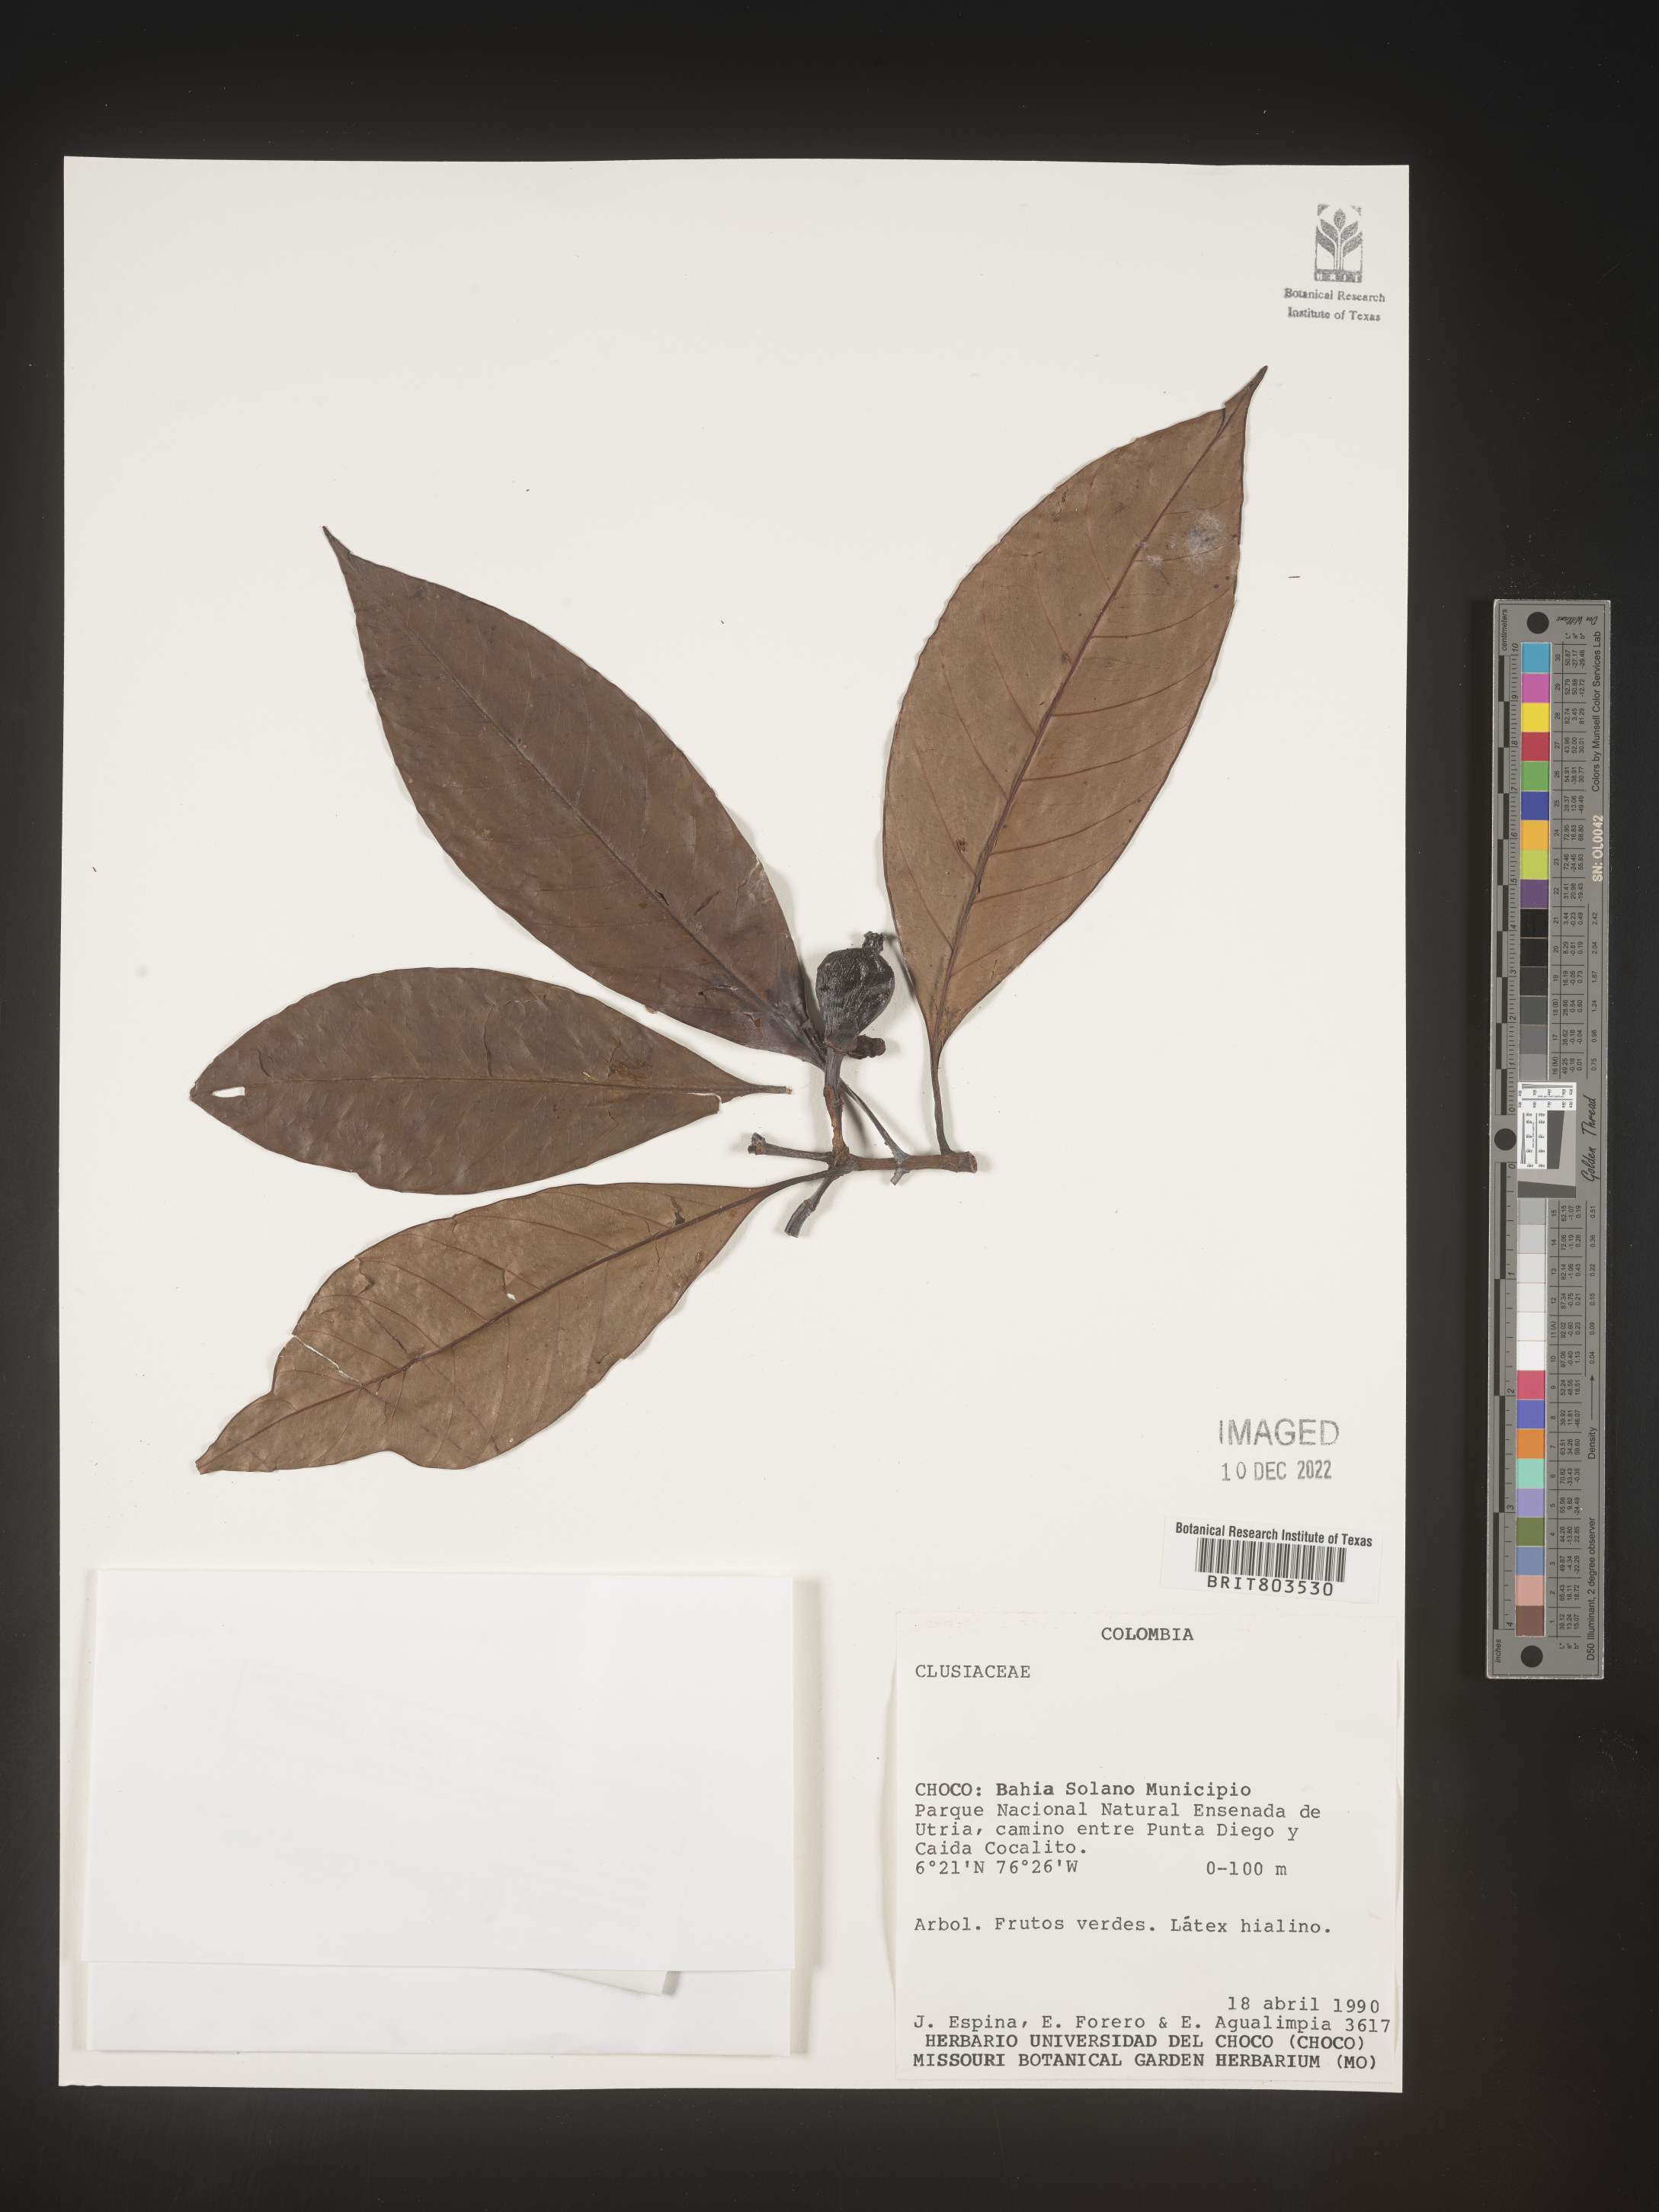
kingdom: Plantae
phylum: Tracheophyta
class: Magnoliopsida
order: Malpighiales
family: Clusiaceae
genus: Tovomita
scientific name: Tovomita
